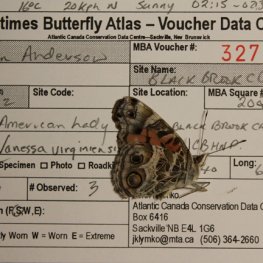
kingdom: Animalia
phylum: Arthropoda
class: Insecta
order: Lepidoptera
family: Nymphalidae
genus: Vanessa
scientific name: Vanessa virginiensis
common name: American Lady
